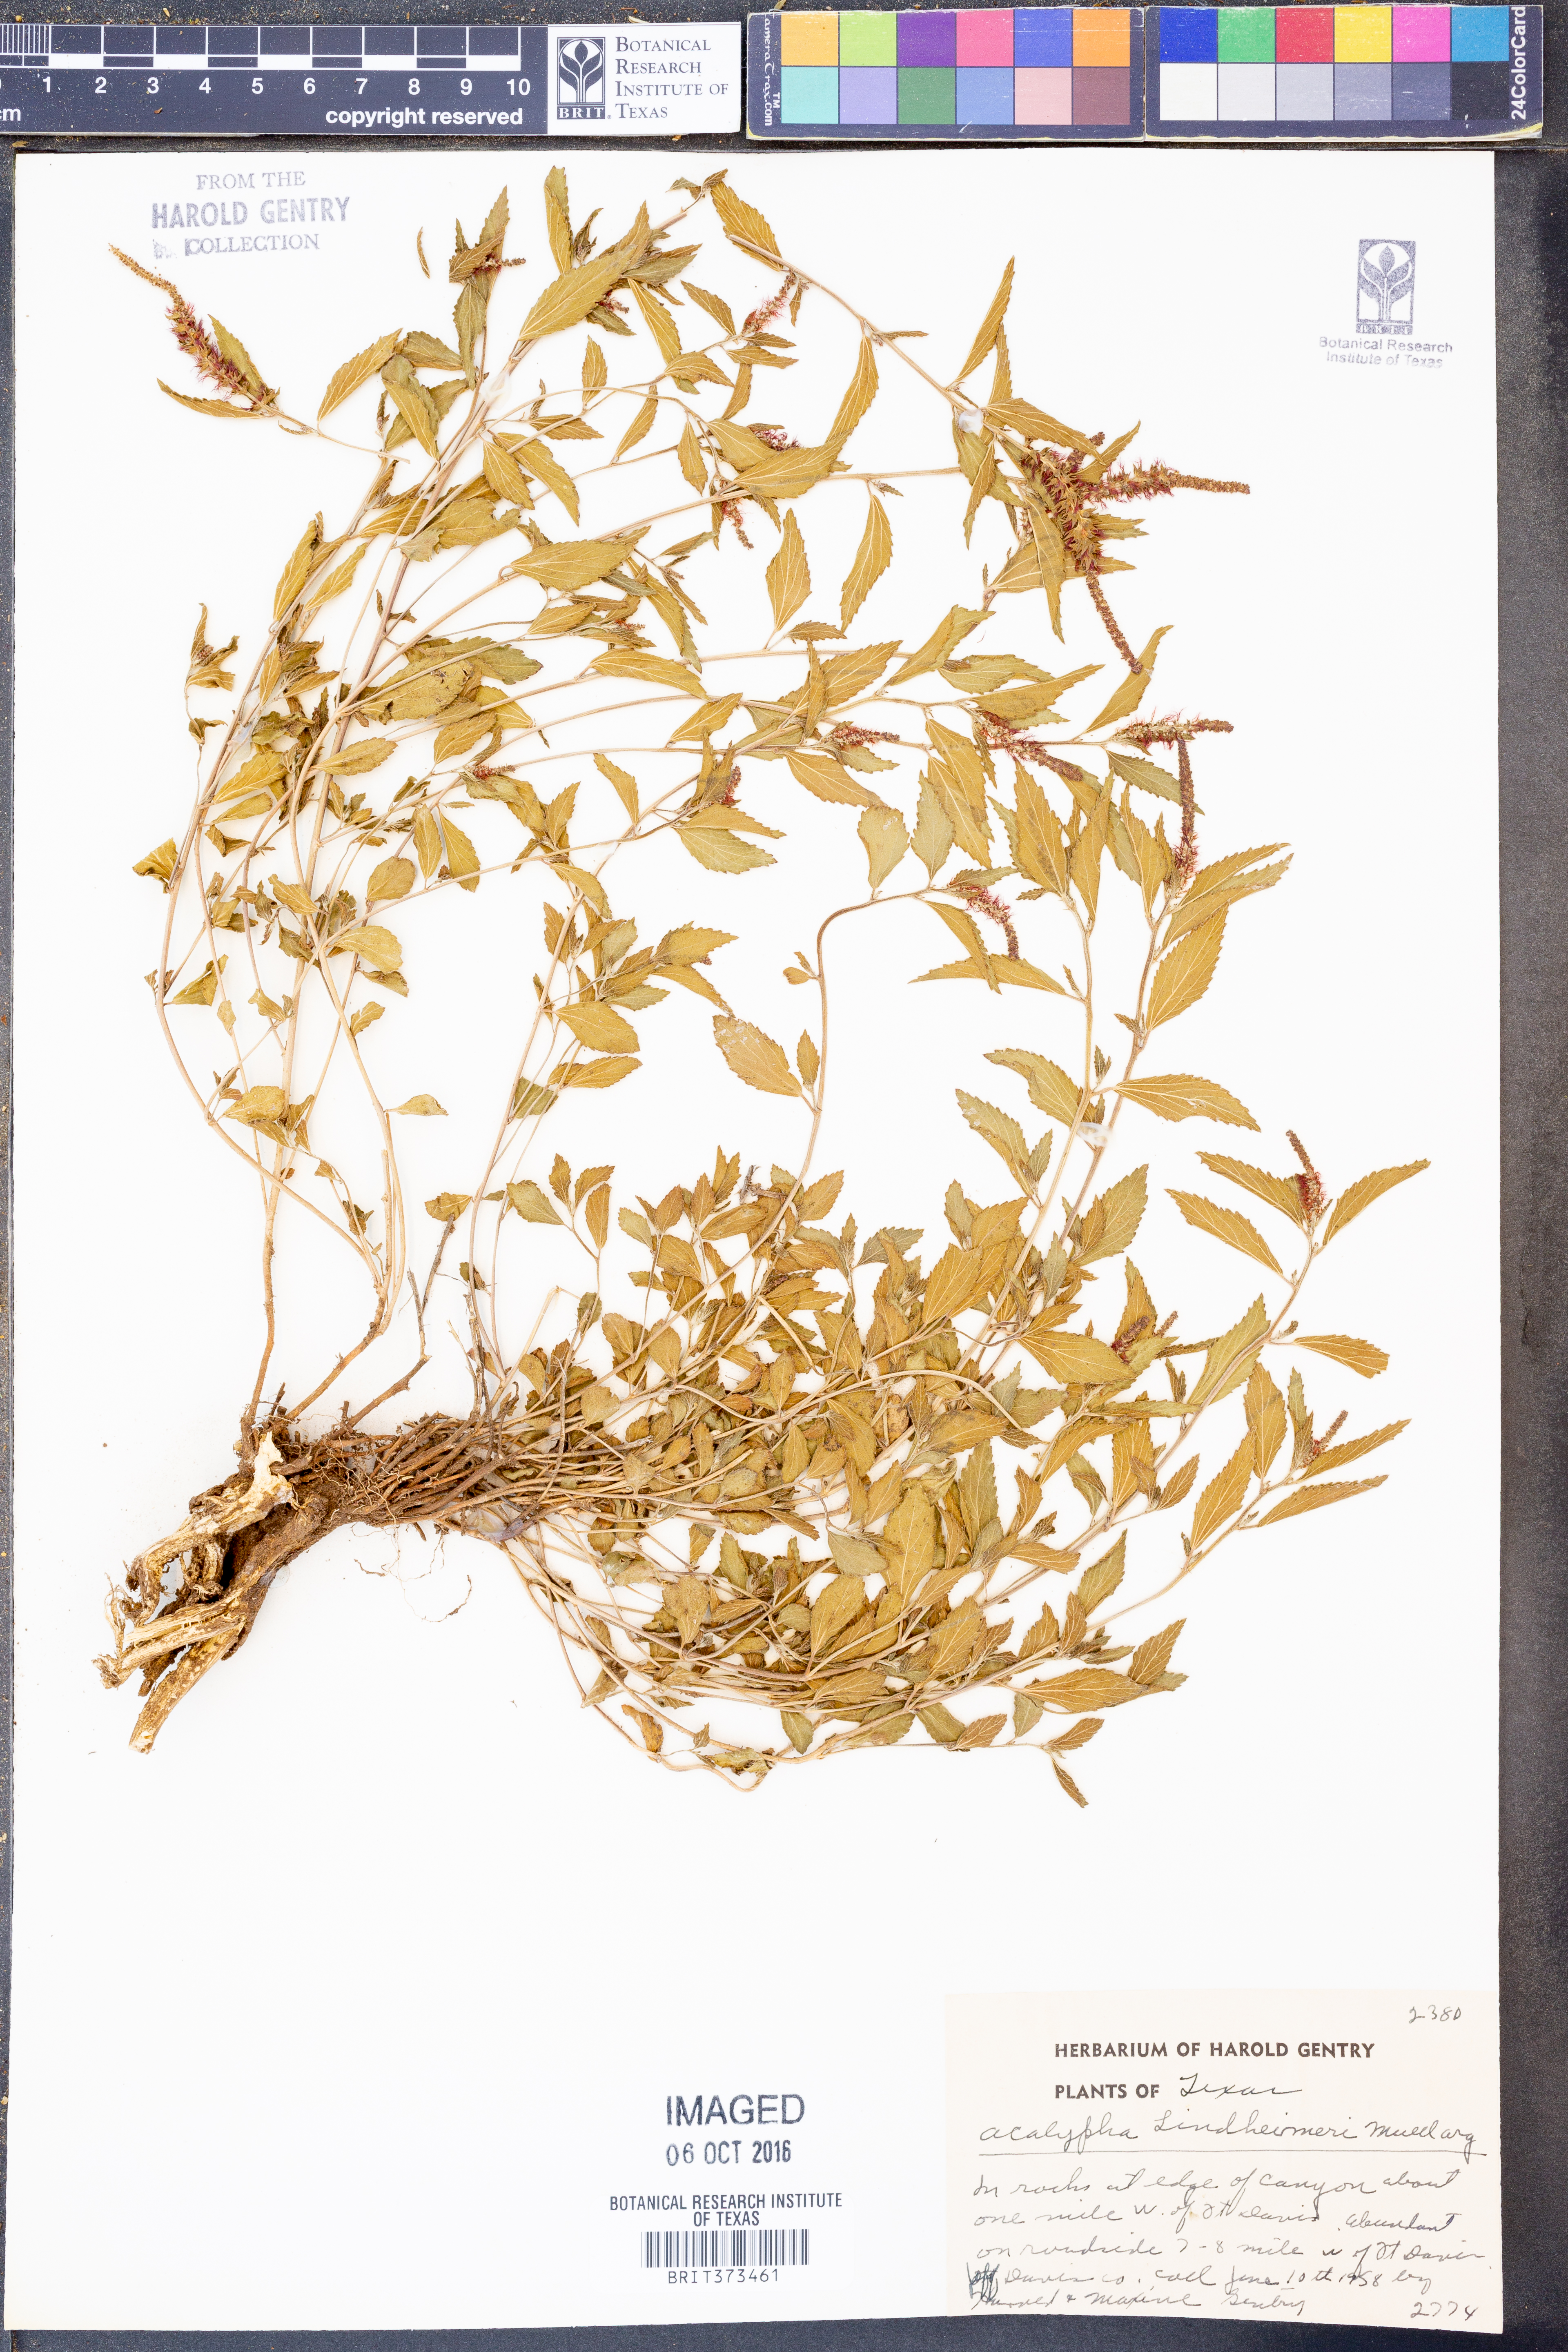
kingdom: Plantae
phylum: Tracheophyta
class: Magnoliopsida
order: Malpighiales
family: Euphorbiaceae
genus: Acalypha
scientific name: Acalypha phleoides
